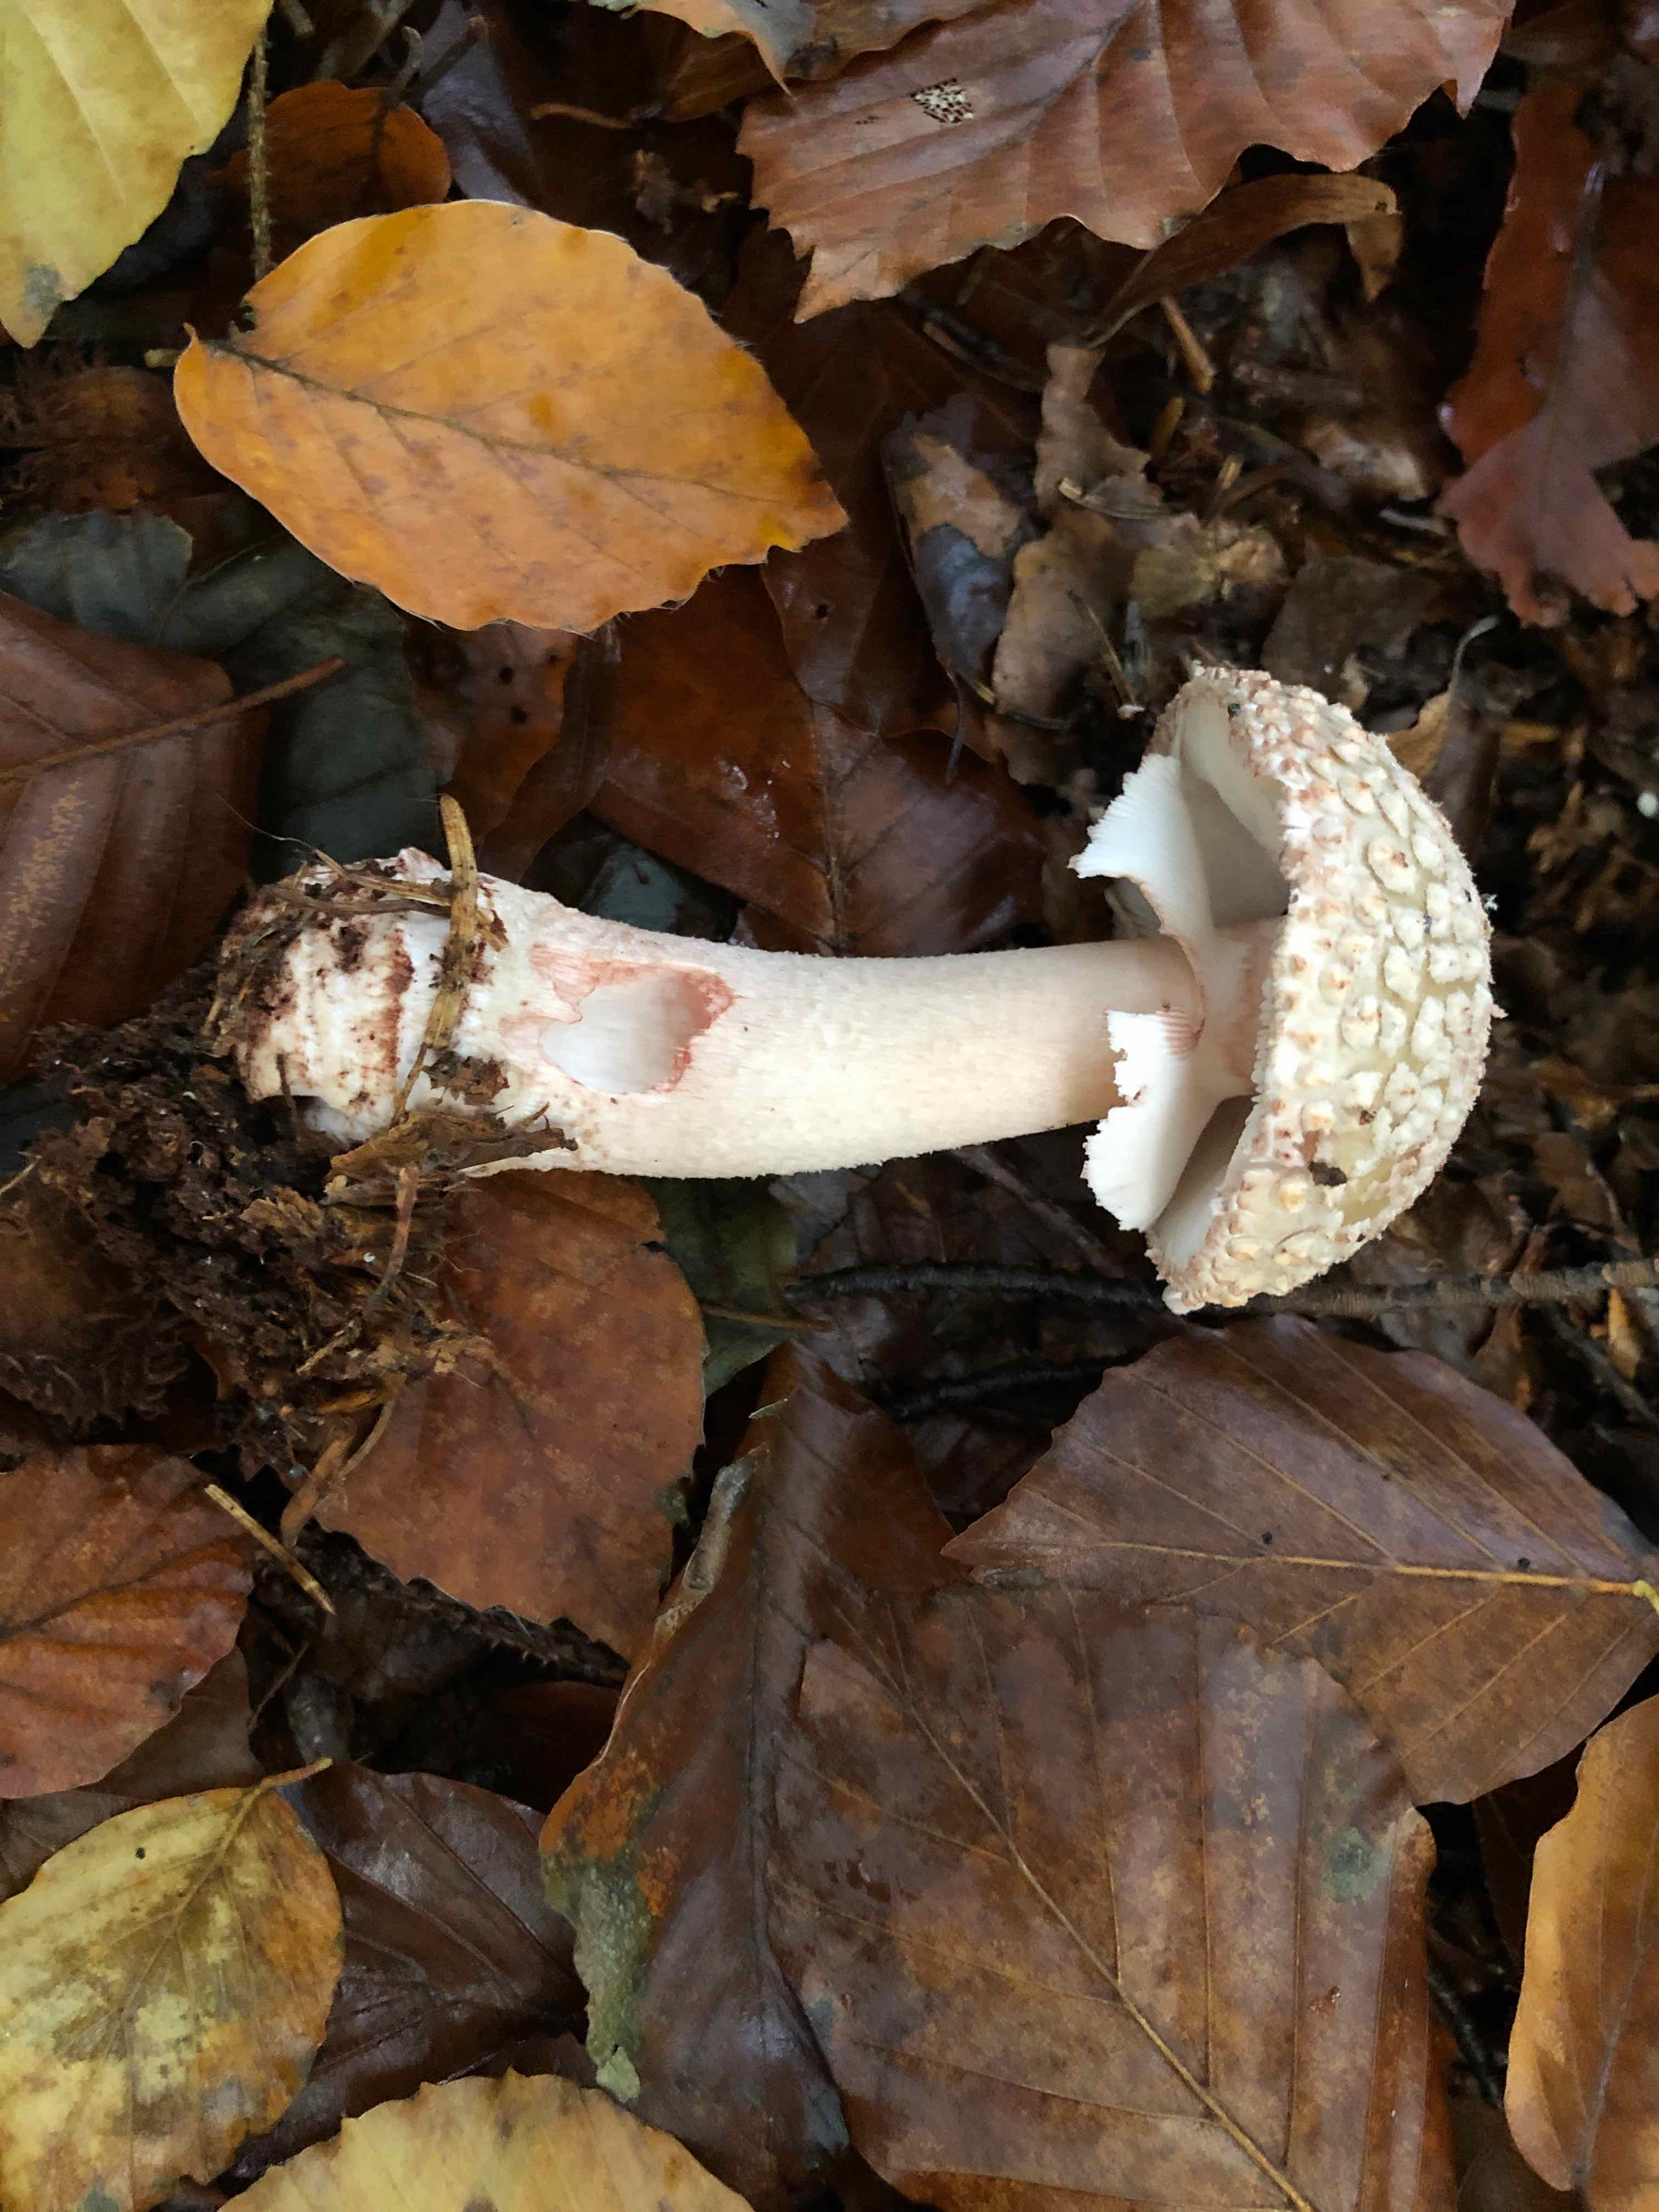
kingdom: Fungi
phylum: Basidiomycota
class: Agaricomycetes
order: Agaricales
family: Amanitaceae
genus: Amanita
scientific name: Amanita rubescens
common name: rødmende fluesvamp
